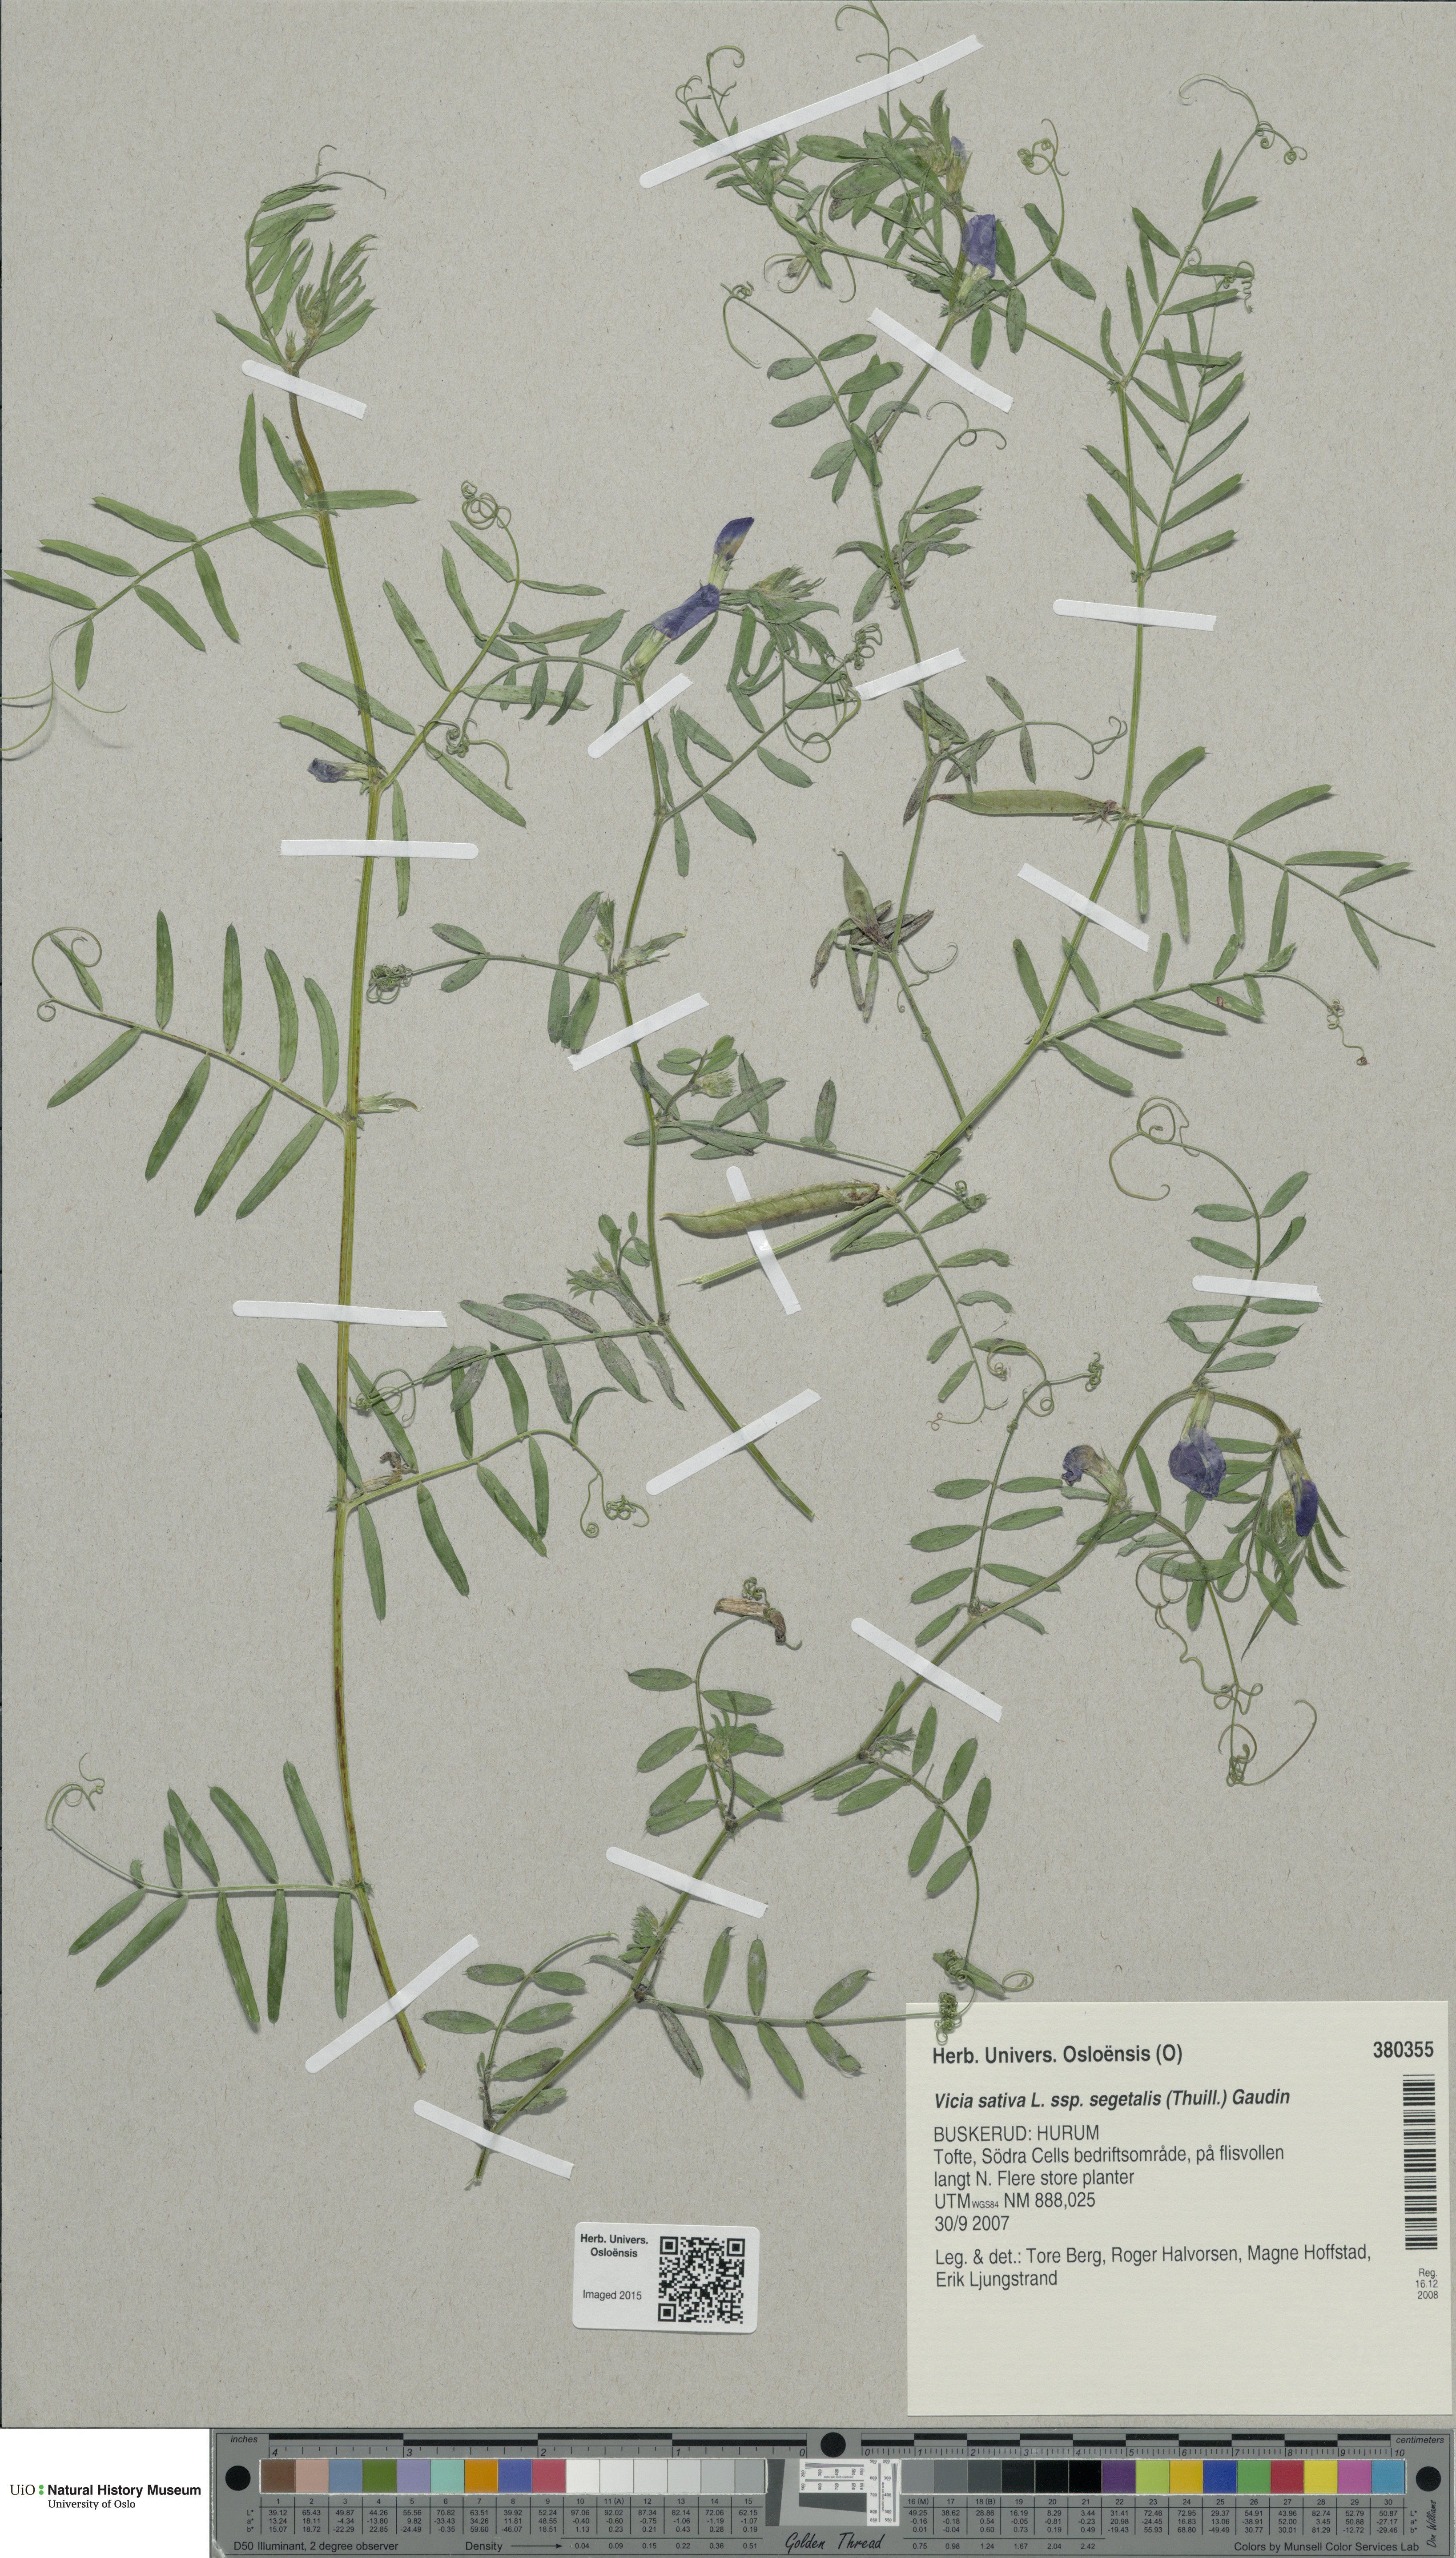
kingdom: Plantae
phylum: Tracheophyta
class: Magnoliopsida
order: Fabales
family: Fabaceae
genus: Vicia
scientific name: Vicia sativa
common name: Garden vetch
